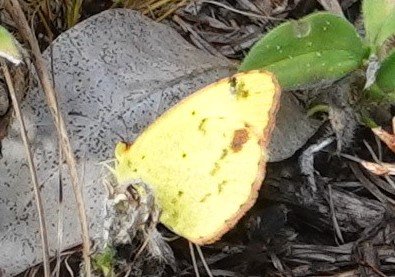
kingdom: Animalia
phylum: Arthropoda
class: Insecta
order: Lepidoptera
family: Pieridae
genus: Pyrisitia
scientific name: Pyrisitia lisa
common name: Little Yellow
